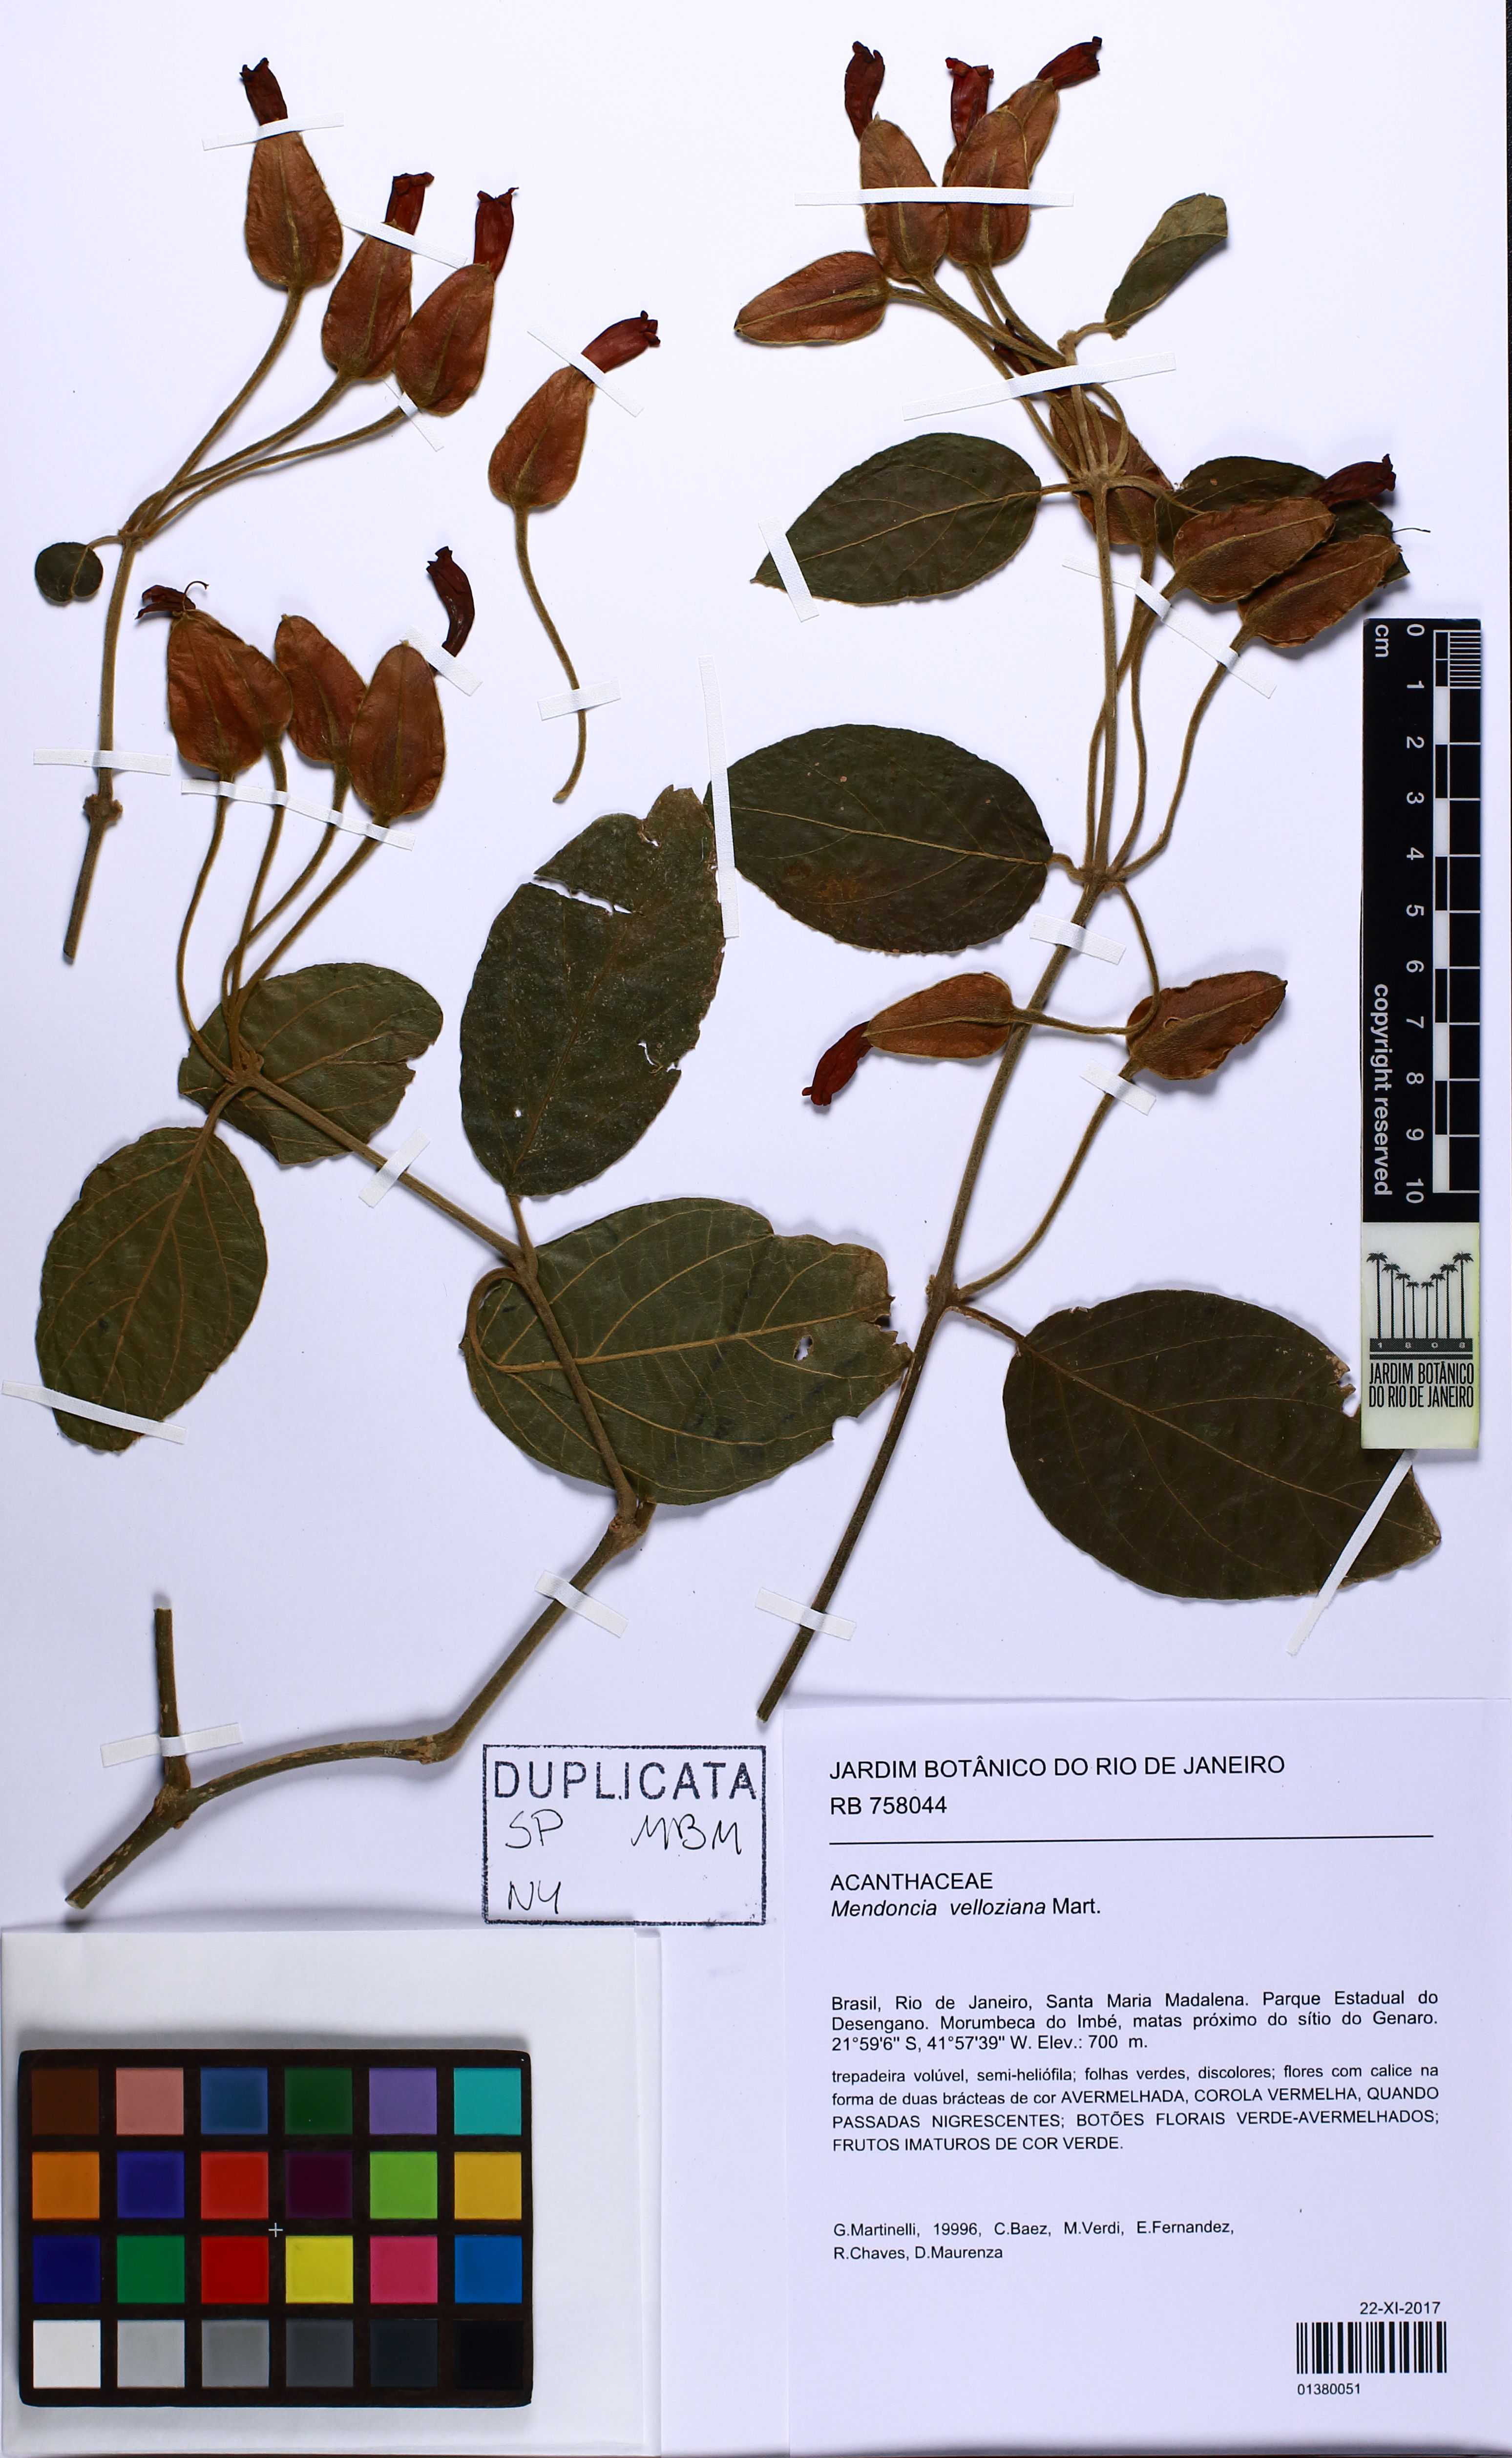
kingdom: Plantae
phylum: Tracheophyta
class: Magnoliopsida
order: Lamiales
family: Acanthaceae
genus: Mendoncia
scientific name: Mendoncia velloziana
